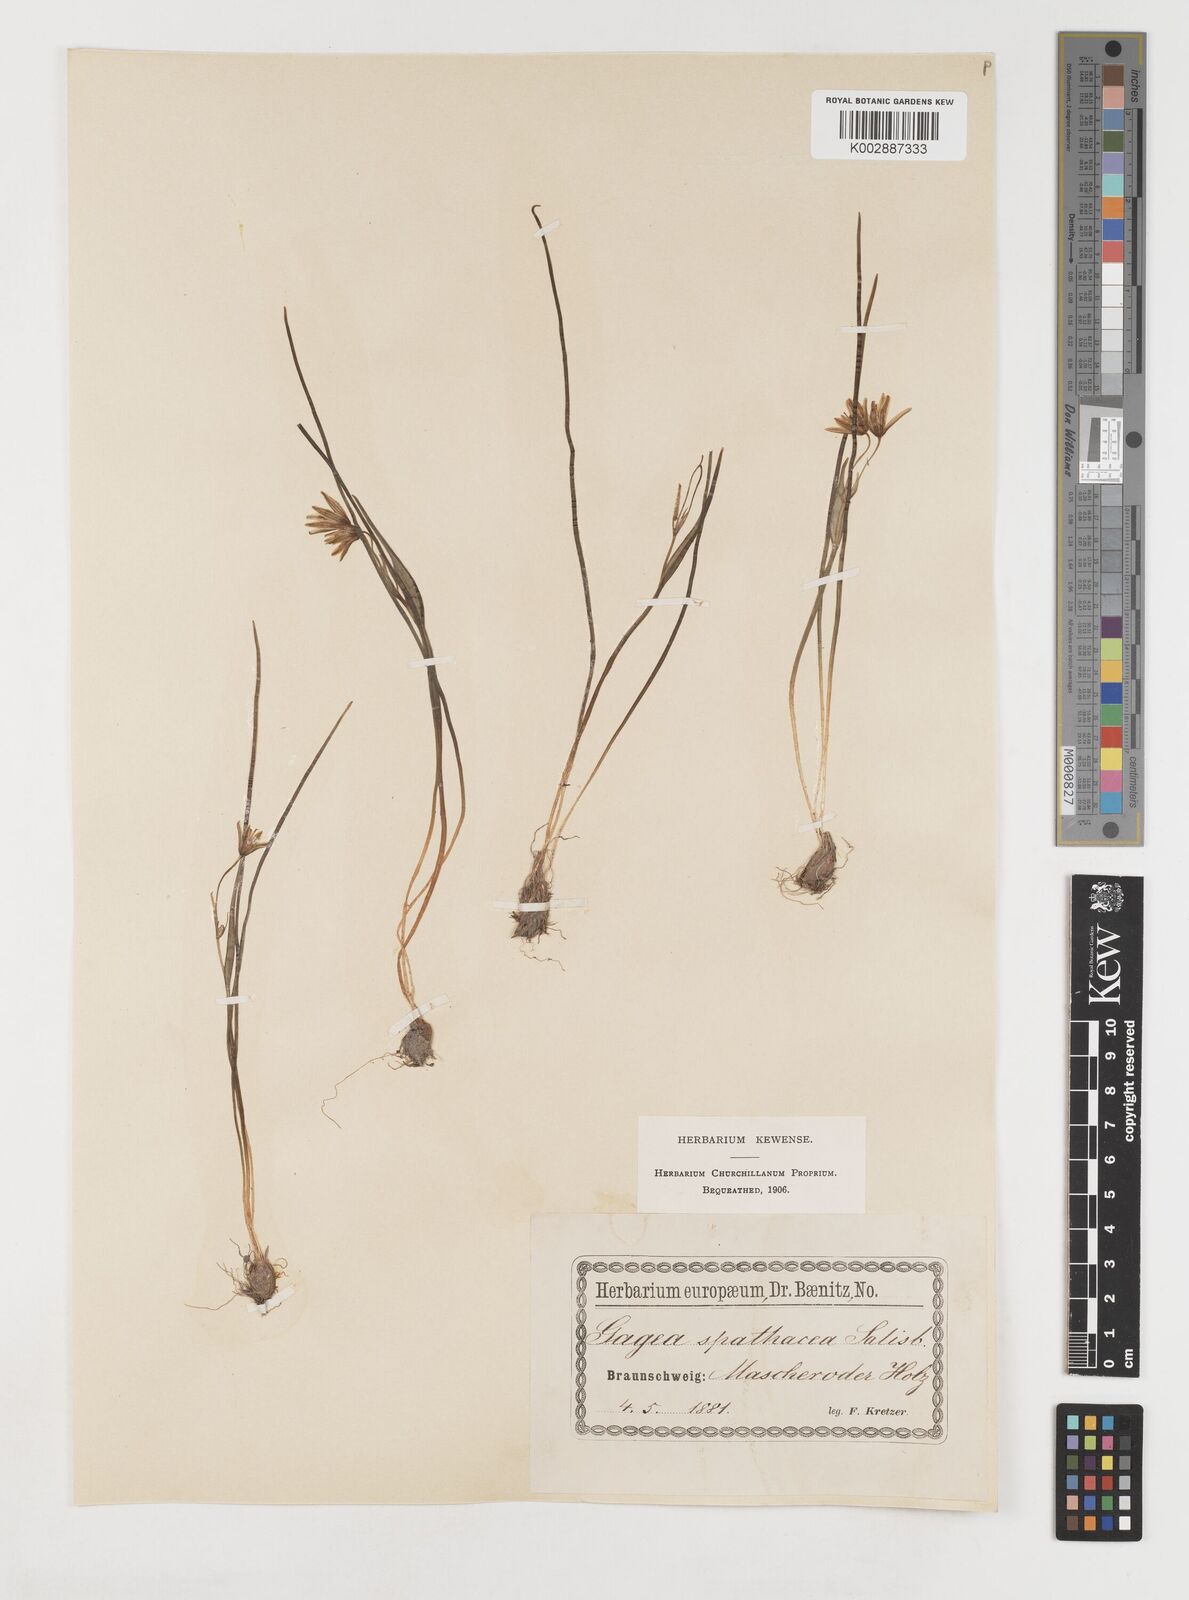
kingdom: Plantae
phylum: Tracheophyta
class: Liliopsida
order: Liliales
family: Liliaceae
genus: Gagea
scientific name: Gagea spathacea
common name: Belgian gagea
